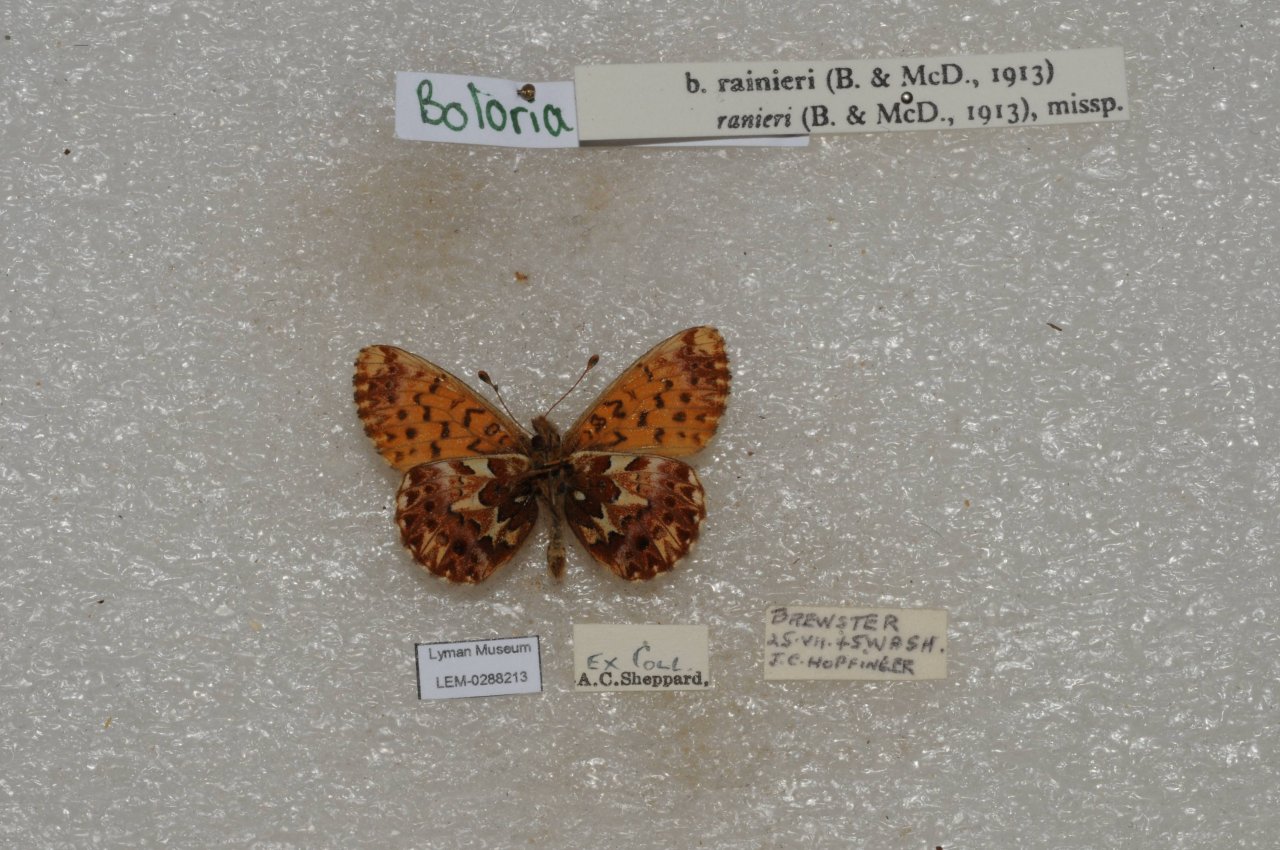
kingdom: Animalia
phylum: Arthropoda
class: Insecta
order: Lepidoptera
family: Nymphalidae
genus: Boloria
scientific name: Boloria chariclea
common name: Arctic Fritillary
